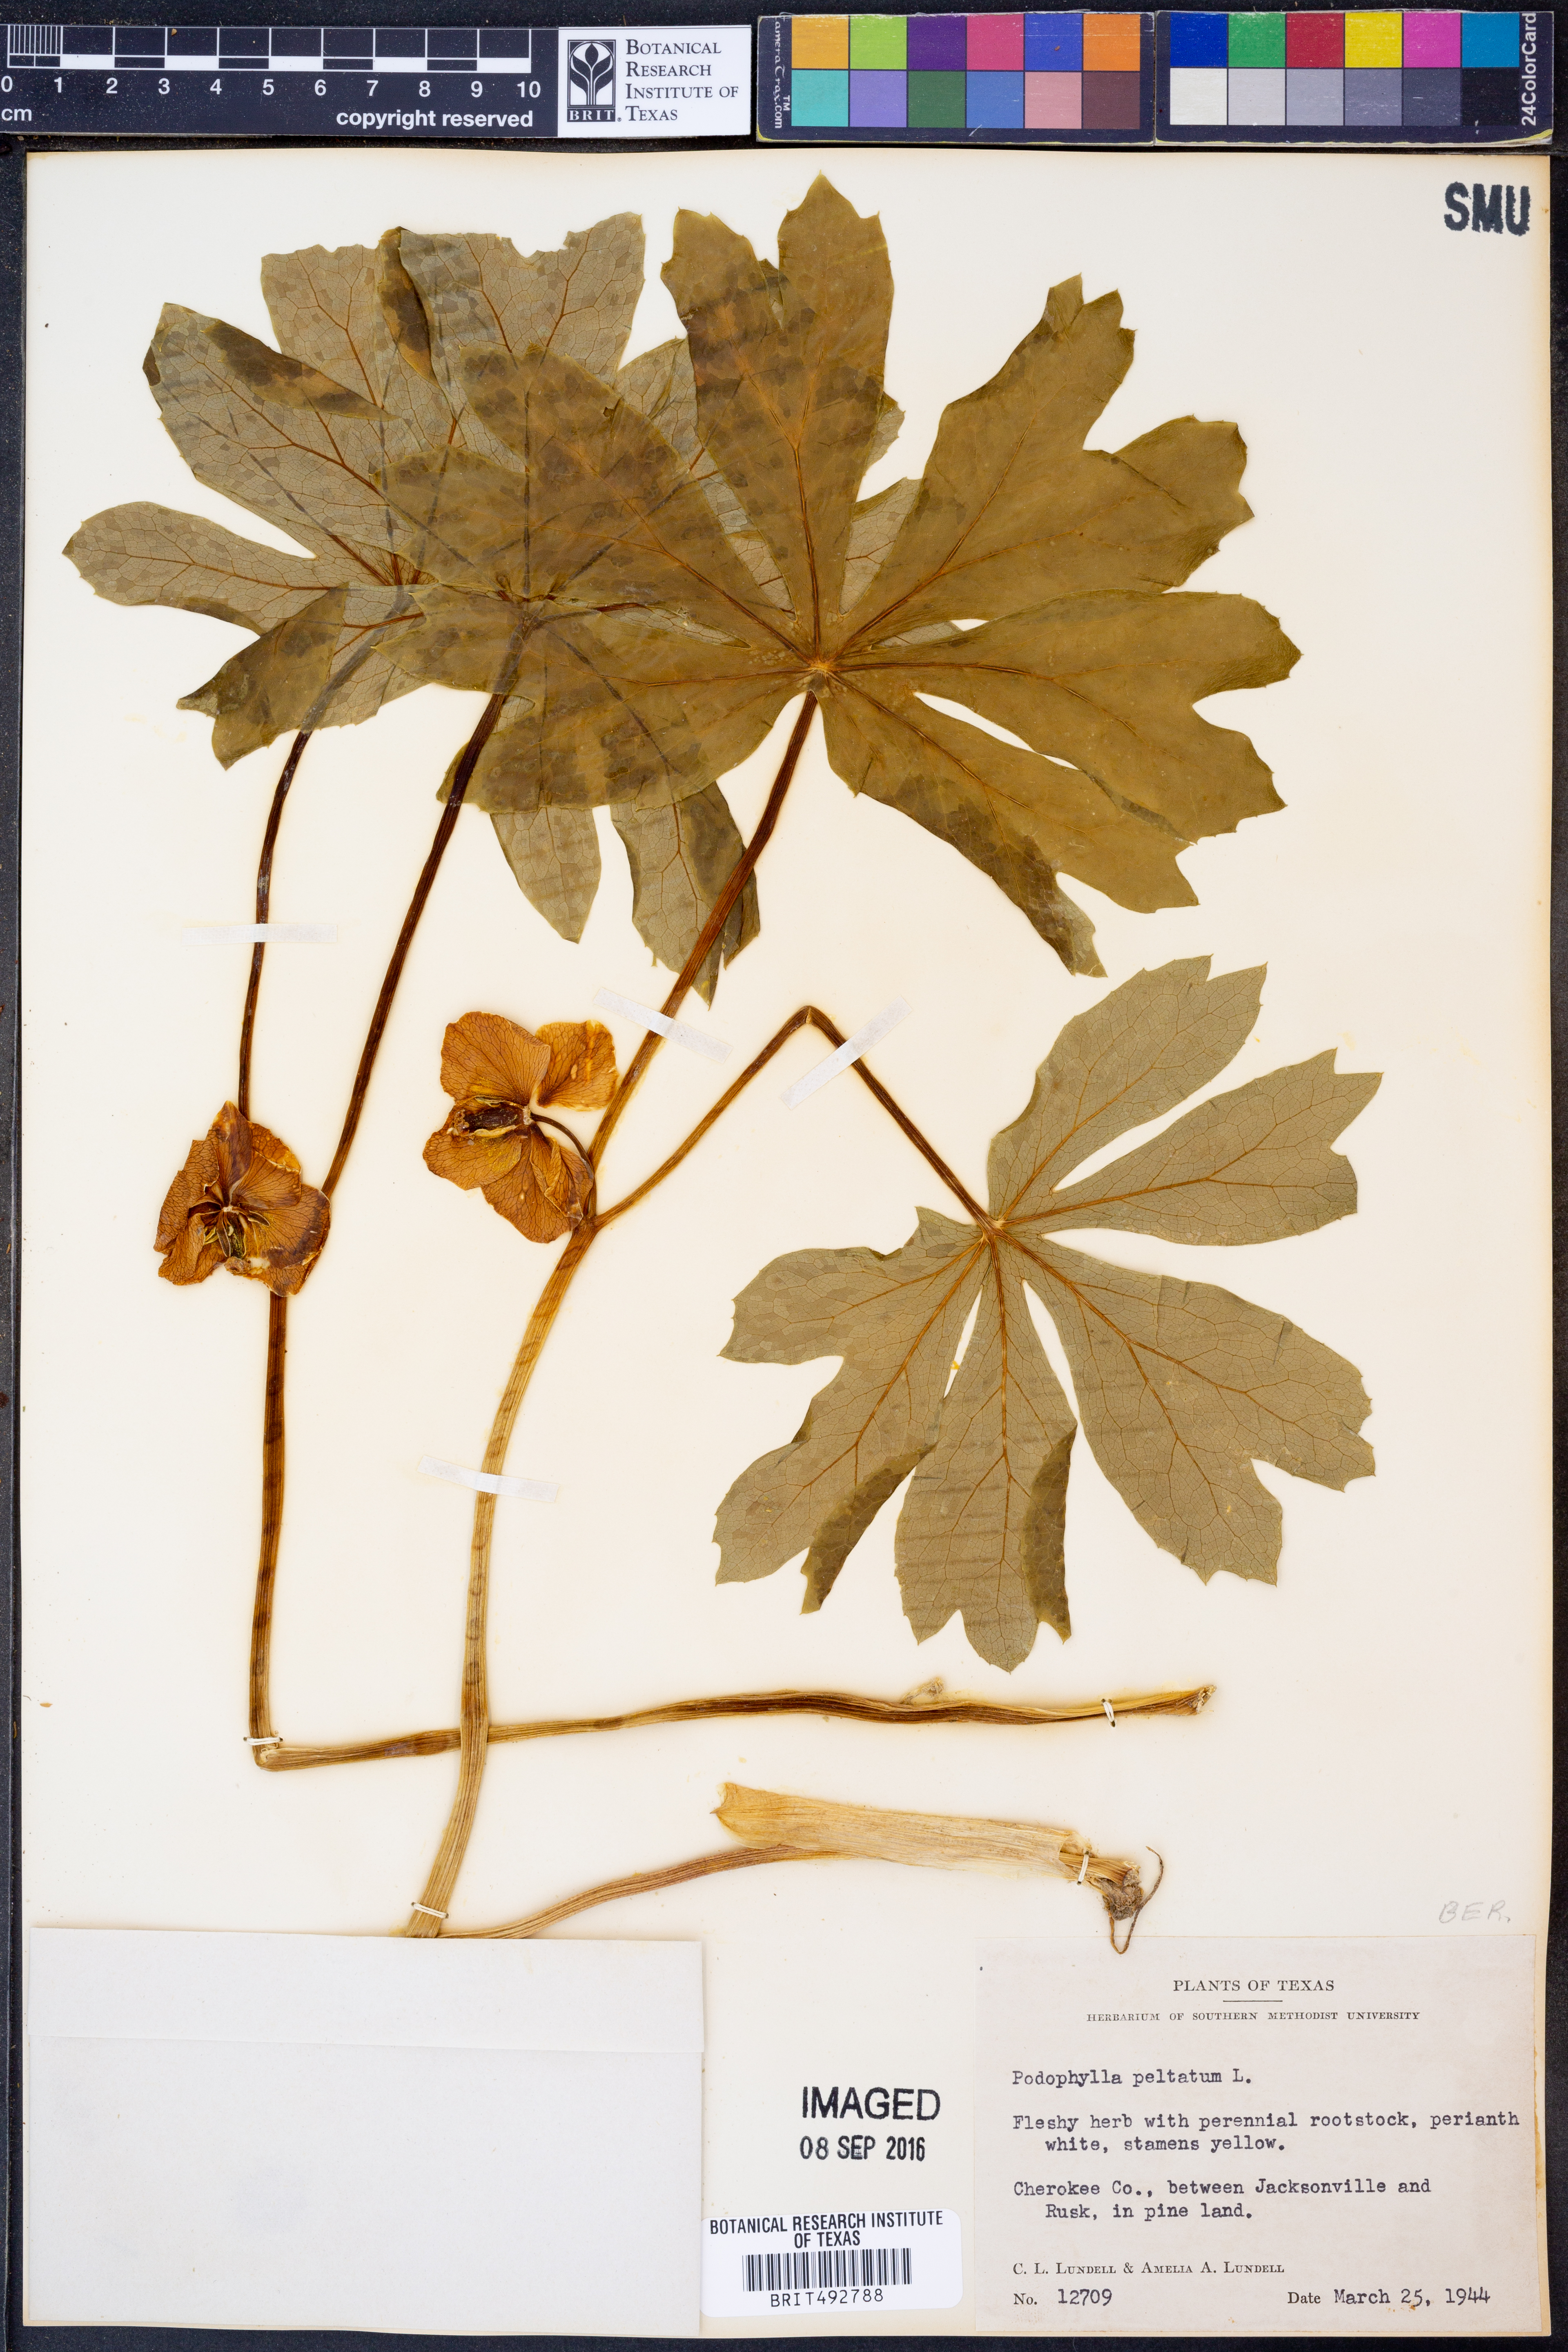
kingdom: Plantae
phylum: Tracheophyta
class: Magnoliopsida
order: Ranunculales
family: Berberidaceae
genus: Podophyllum
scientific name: Podophyllum peltatum
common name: Wild mandrake
